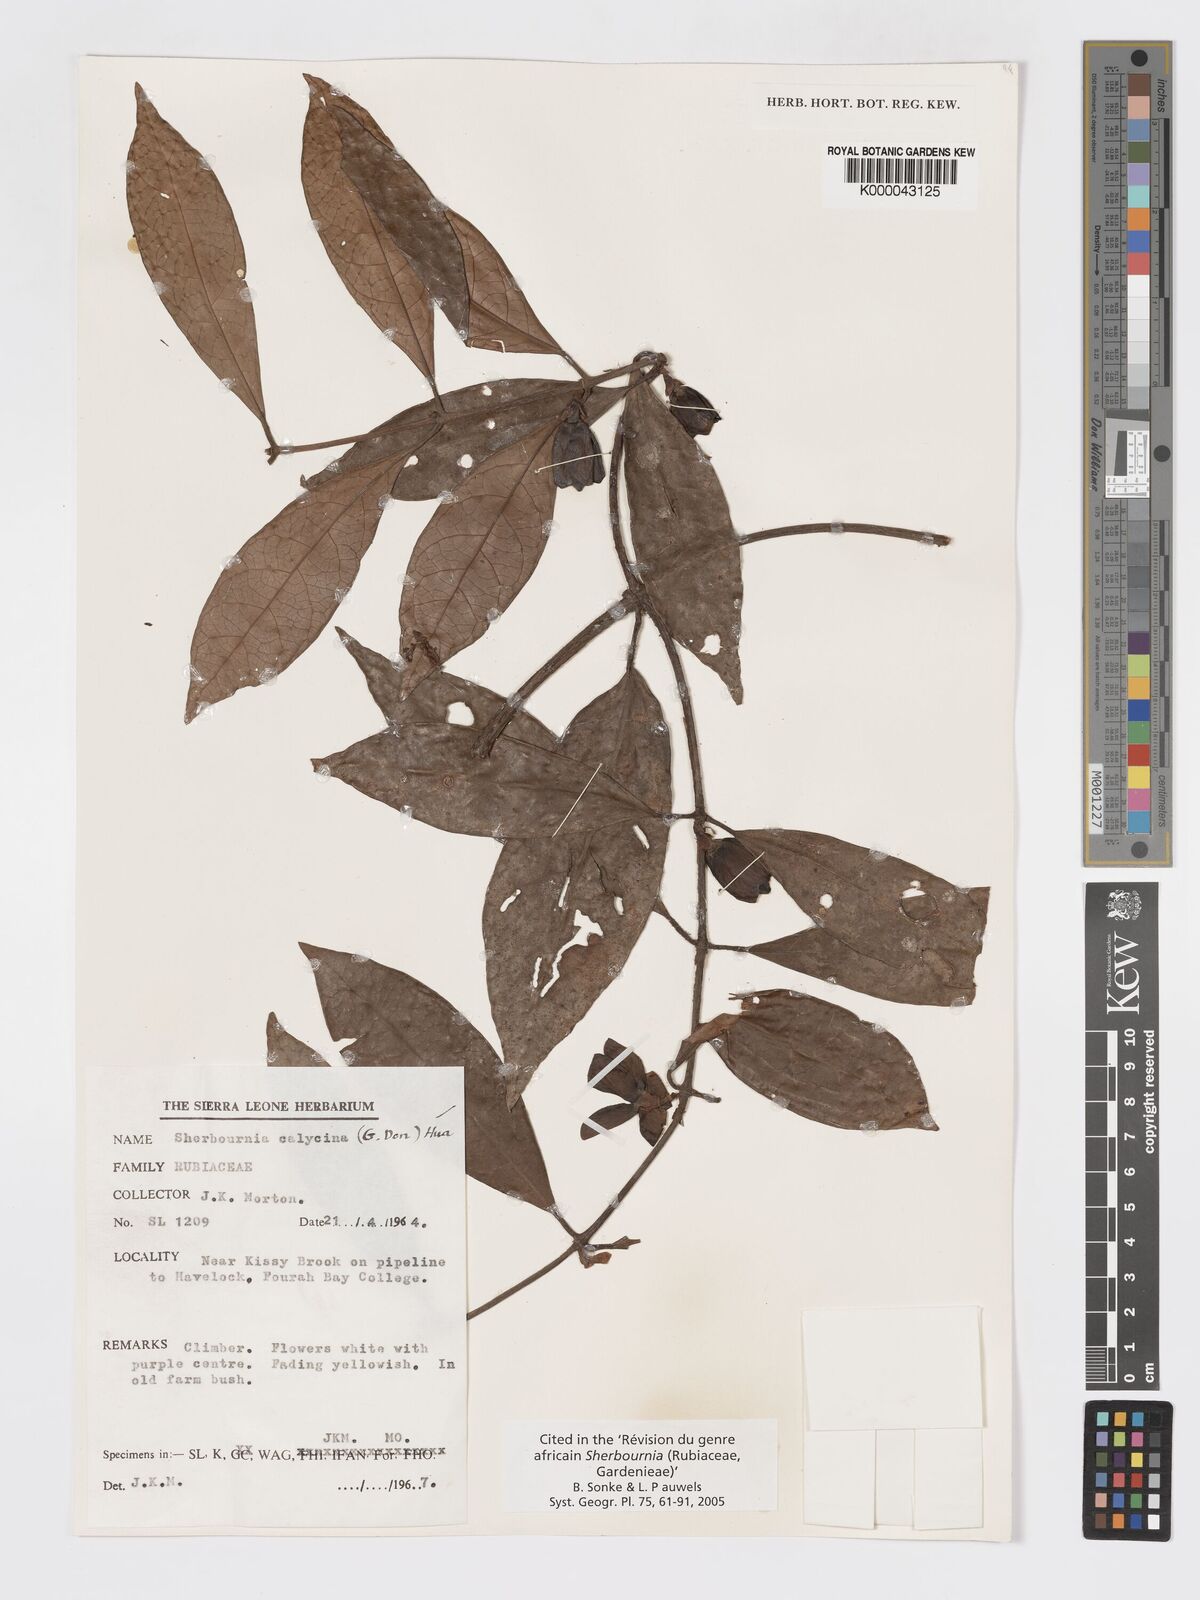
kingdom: Plantae
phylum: Tracheophyta
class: Magnoliopsida
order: Gentianales
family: Rubiaceae
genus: Sherbournia
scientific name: Sherbournia calycina
